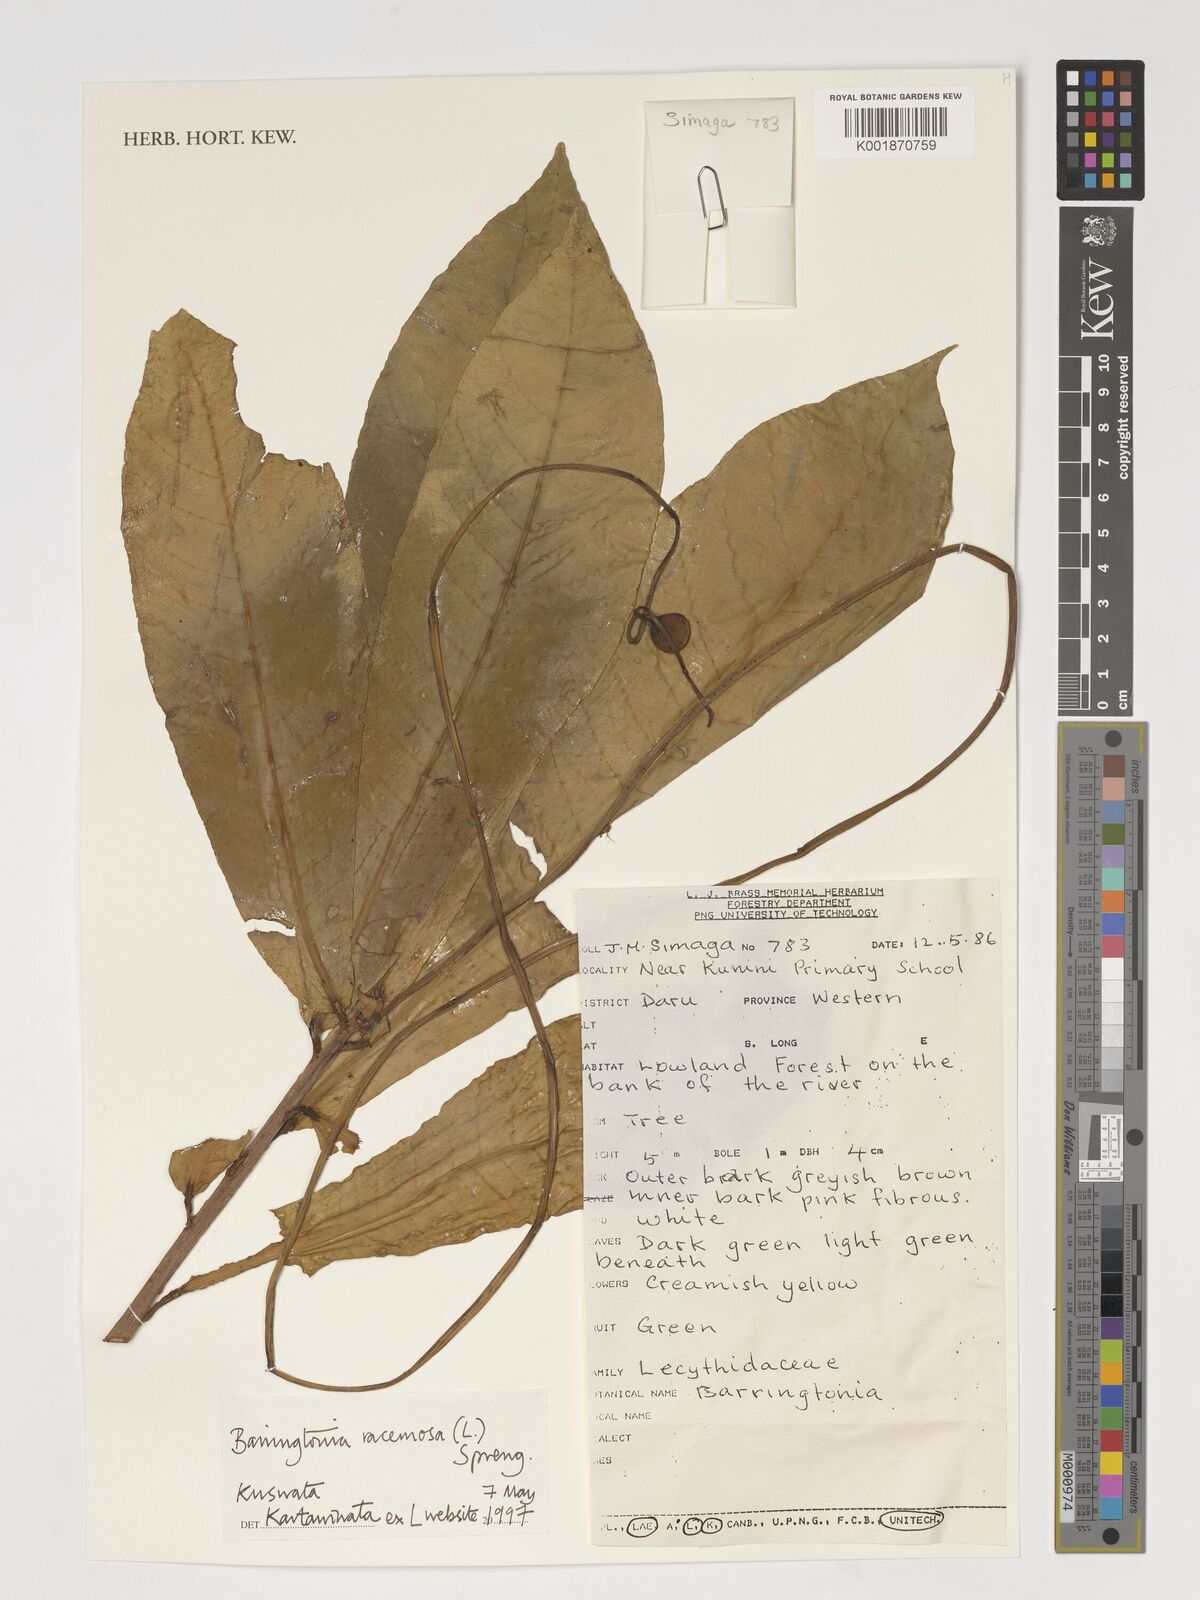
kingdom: Plantae
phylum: Tracheophyta
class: Magnoliopsida
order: Ericales
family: Lecythidaceae
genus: Barringtonia
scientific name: Barringtonia racemosa
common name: Brackwater mangrove
